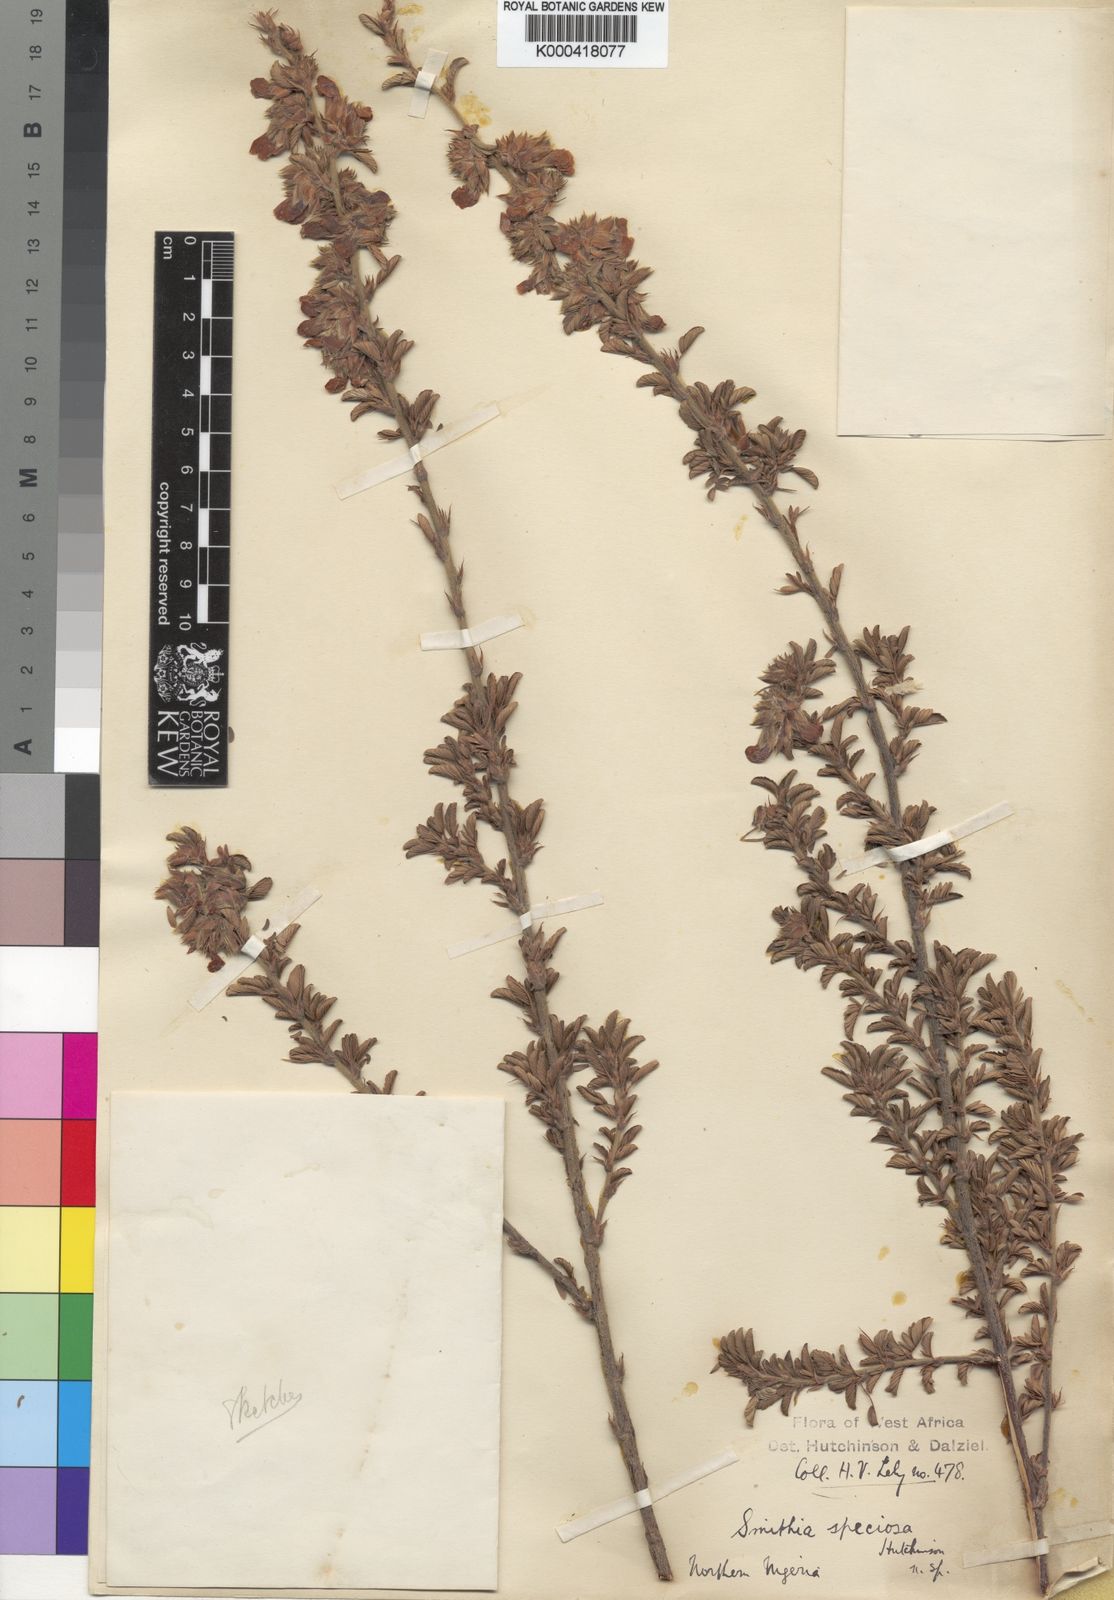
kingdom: Plantae
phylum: Tracheophyta
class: Magnoliopsida
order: Fabales
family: Fabaceae
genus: Kotschya
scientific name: Kotschya speciosa
